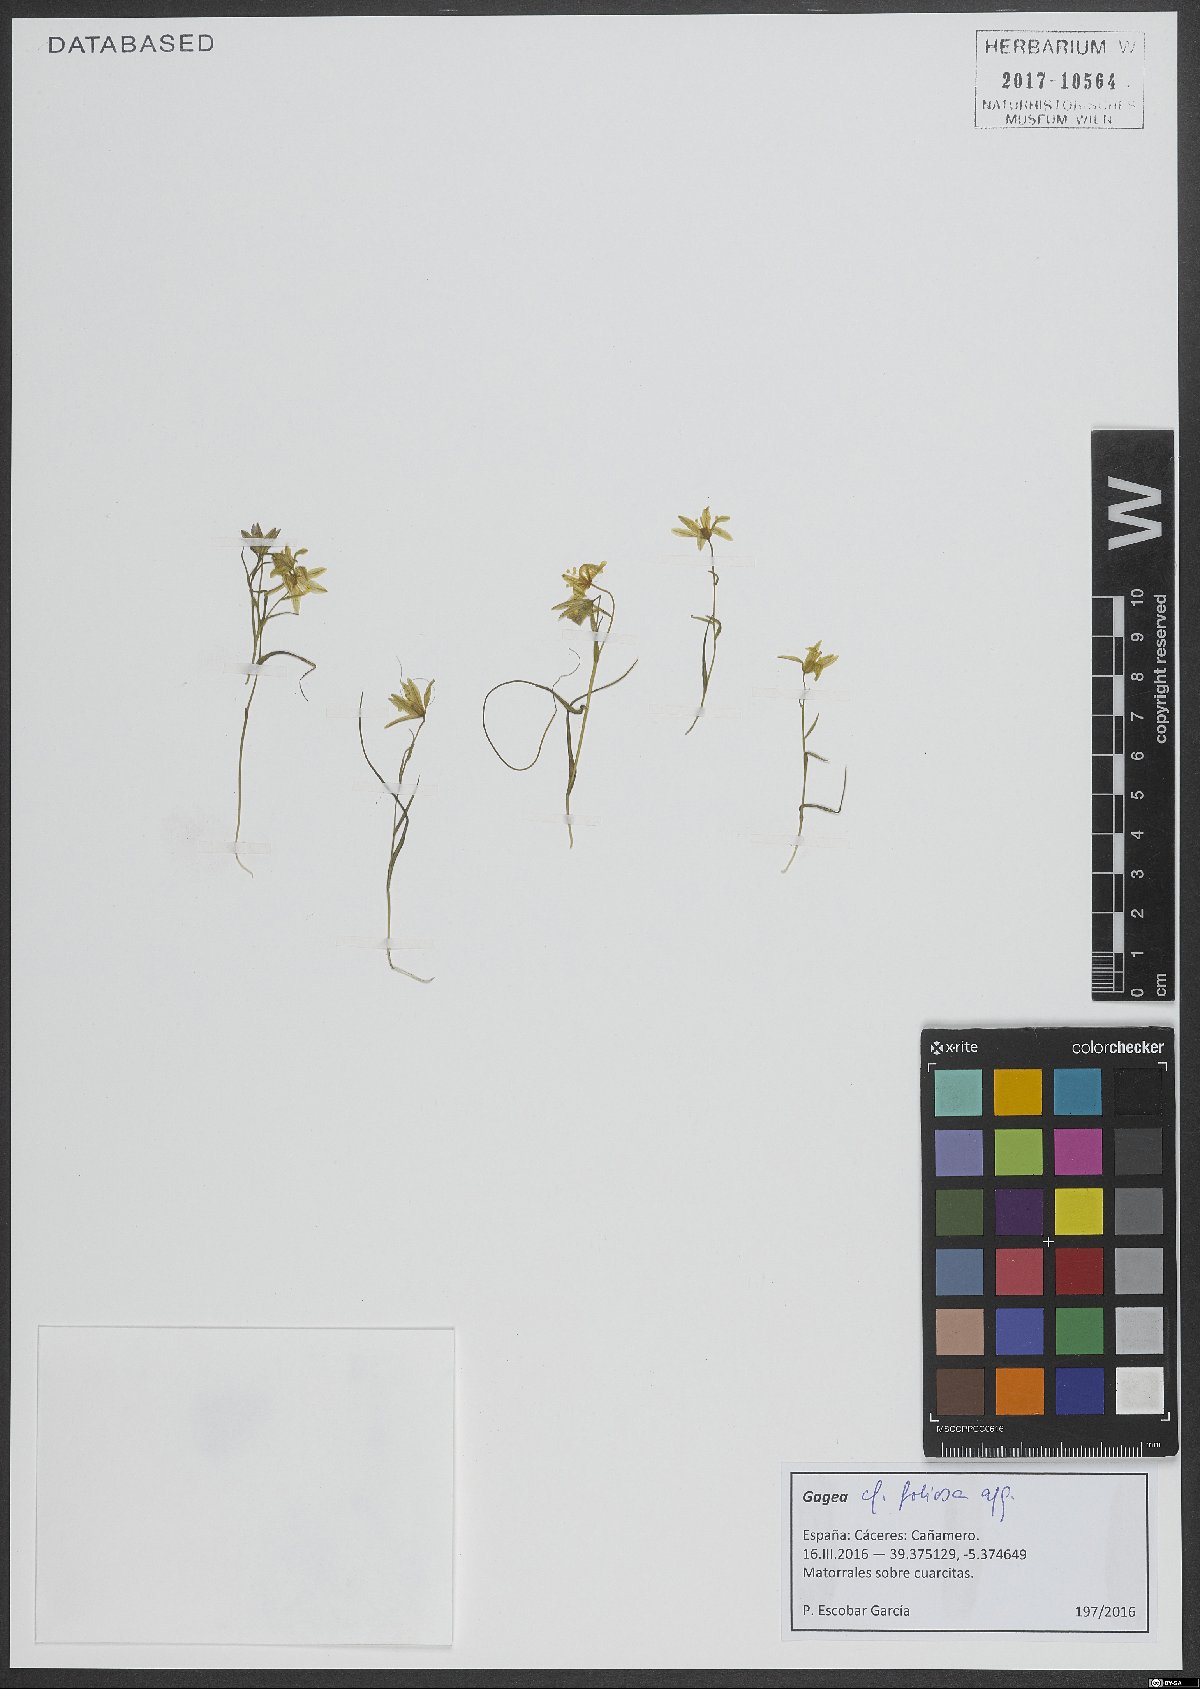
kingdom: Plantae
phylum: Tracheophyta
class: Liliopsida
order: Liliales
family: Liliaceae
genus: Gagea
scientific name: Gagea foliosa
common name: Leafy gagea
